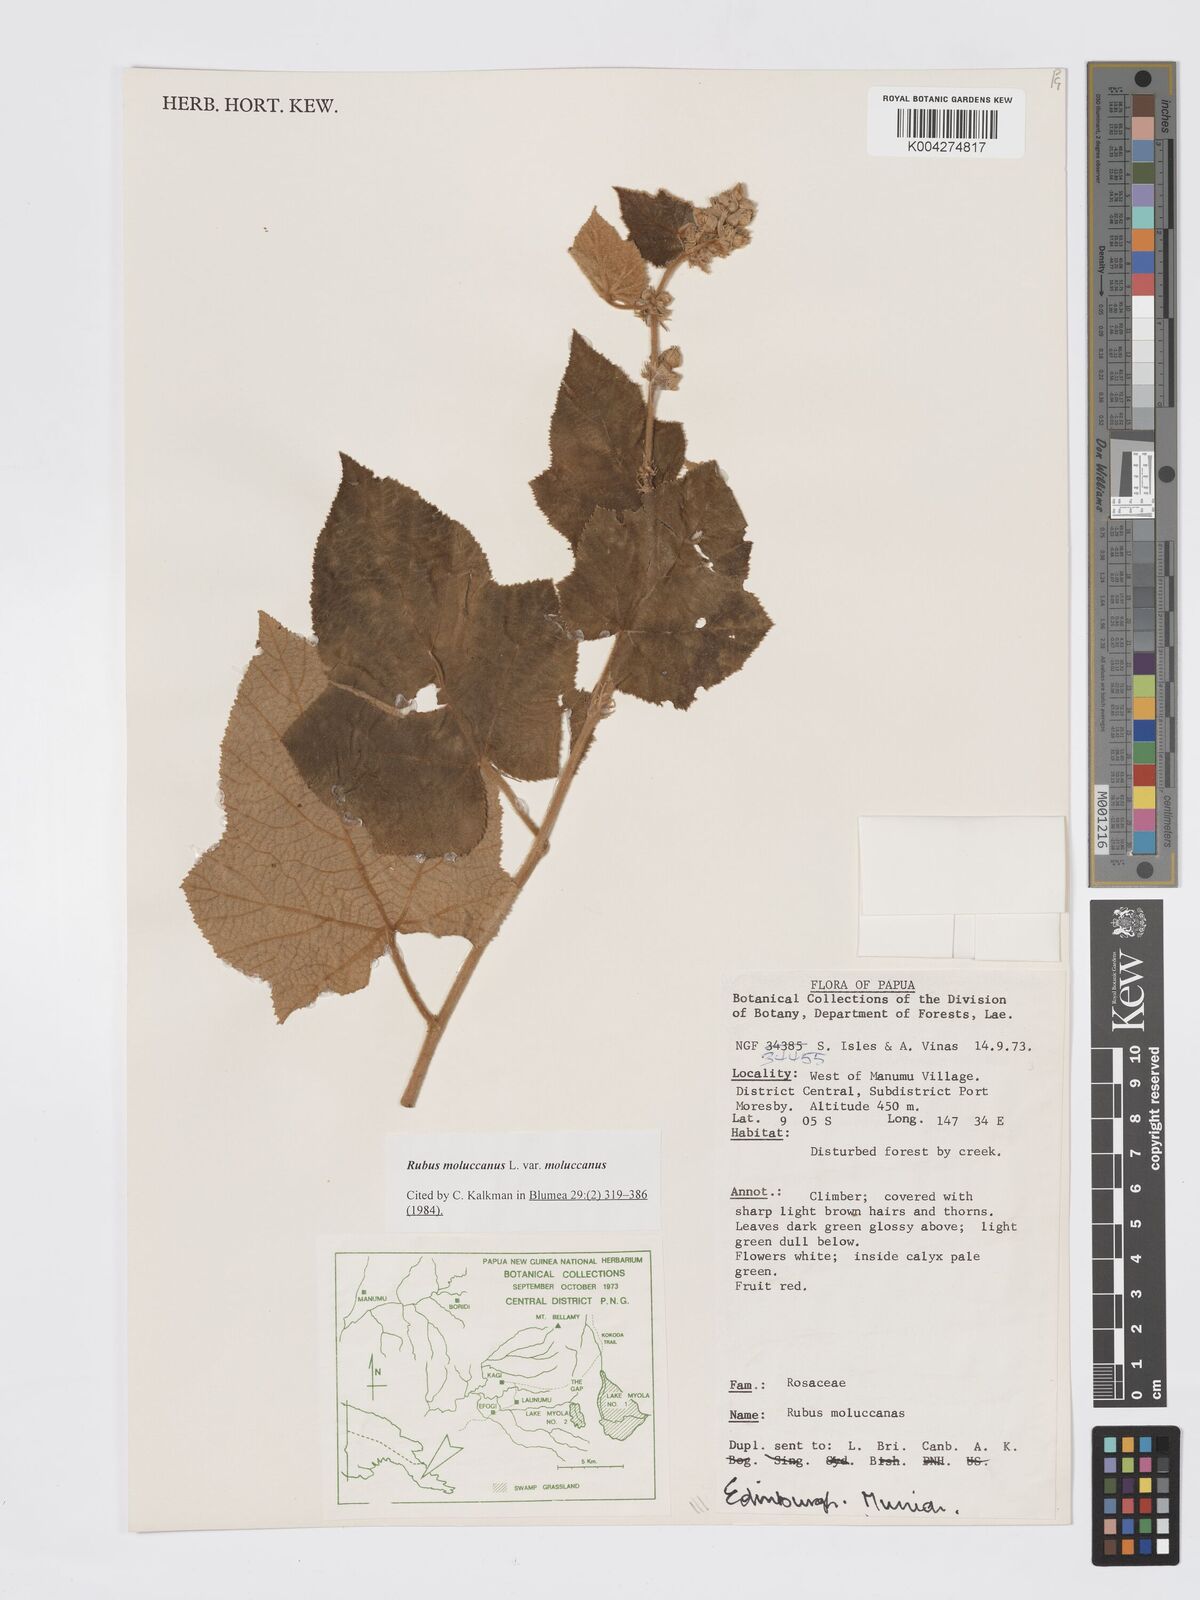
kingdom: Plantae
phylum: Tracheophyta
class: Magnoliopsida
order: Rosales
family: Rosaceae
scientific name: Rosaceae
